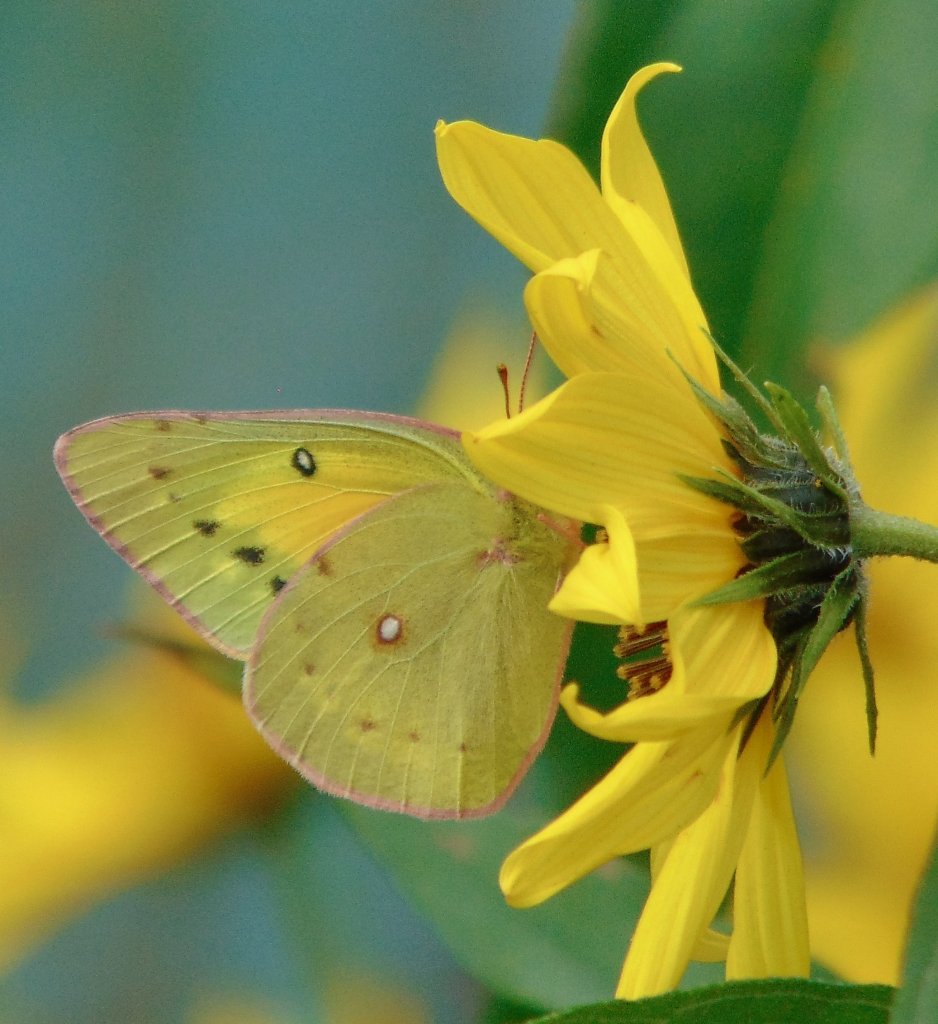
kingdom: Animalia
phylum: Arthropoda
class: Insecta
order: Lepidoptera
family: Pieridae
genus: Colias
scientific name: Colias eurytheme
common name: Orange Sulphur
